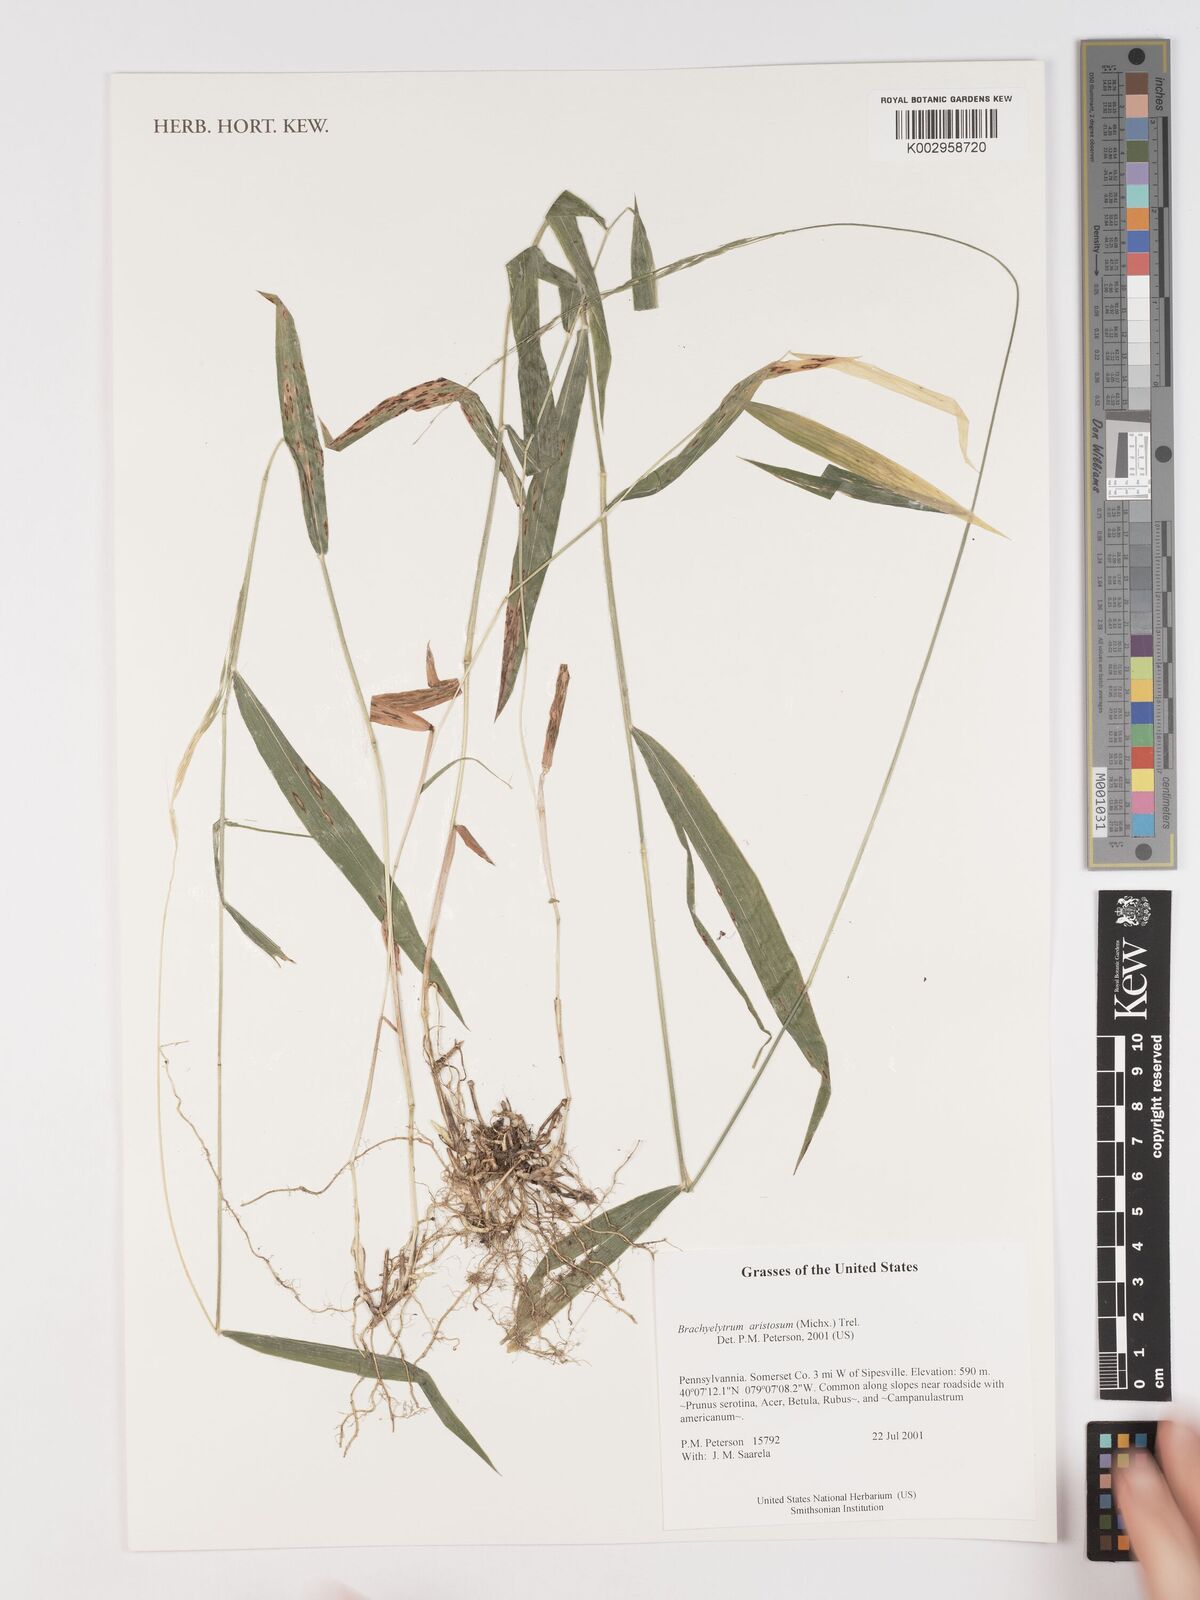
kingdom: Plantae
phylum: Tracheophyta
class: Liliopsida
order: Poales
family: Poaceae
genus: Brachyelytrum
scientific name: Brachyelytrum aristosum
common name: Northern shorthusk
